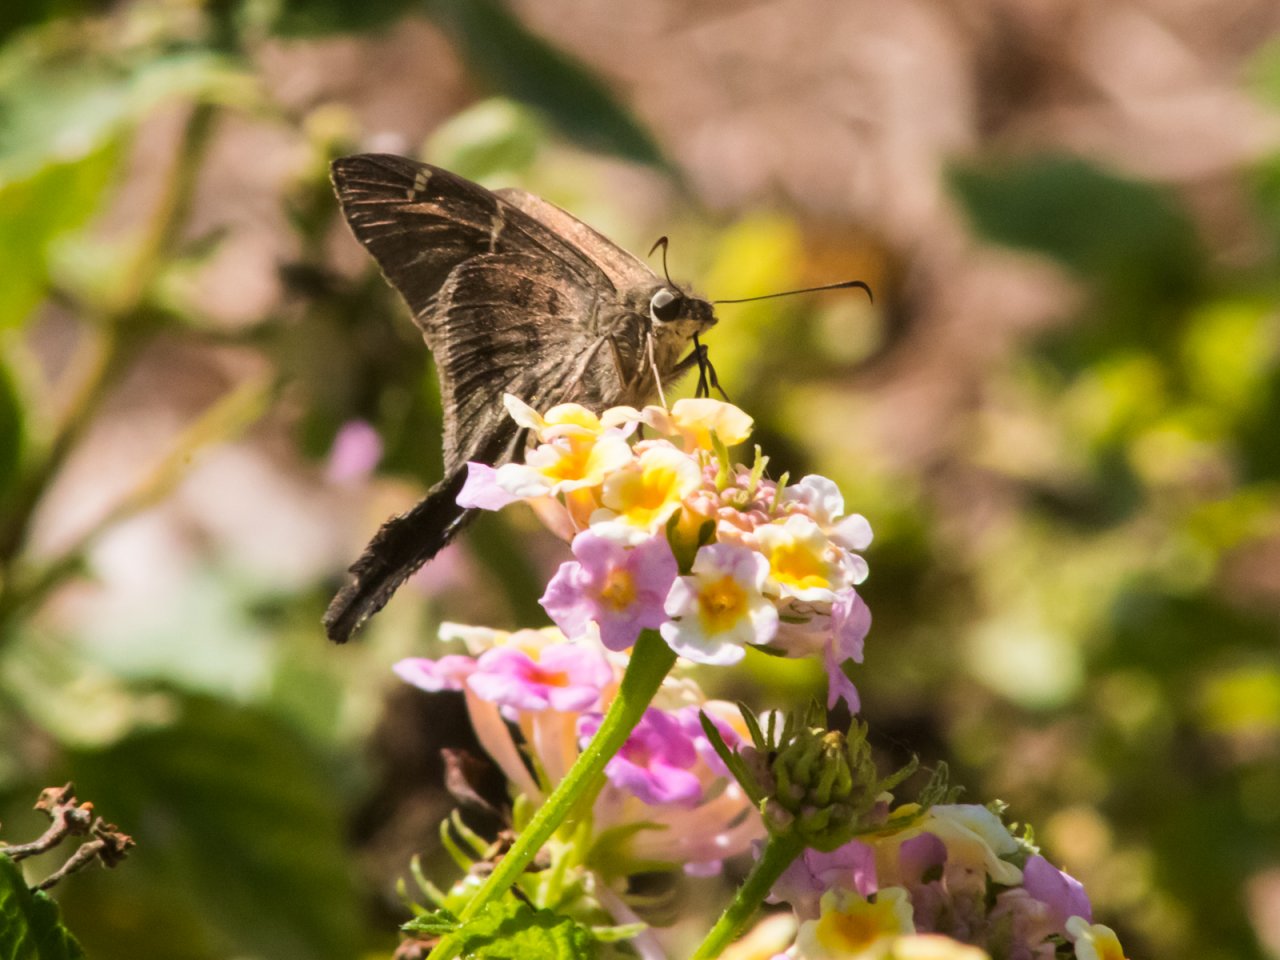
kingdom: Animalia
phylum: Arthropoda
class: Insecta
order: Lepidoptera
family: Hesperiidae
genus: Urbanus
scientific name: Urbanus procne
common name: Brown Longtail
